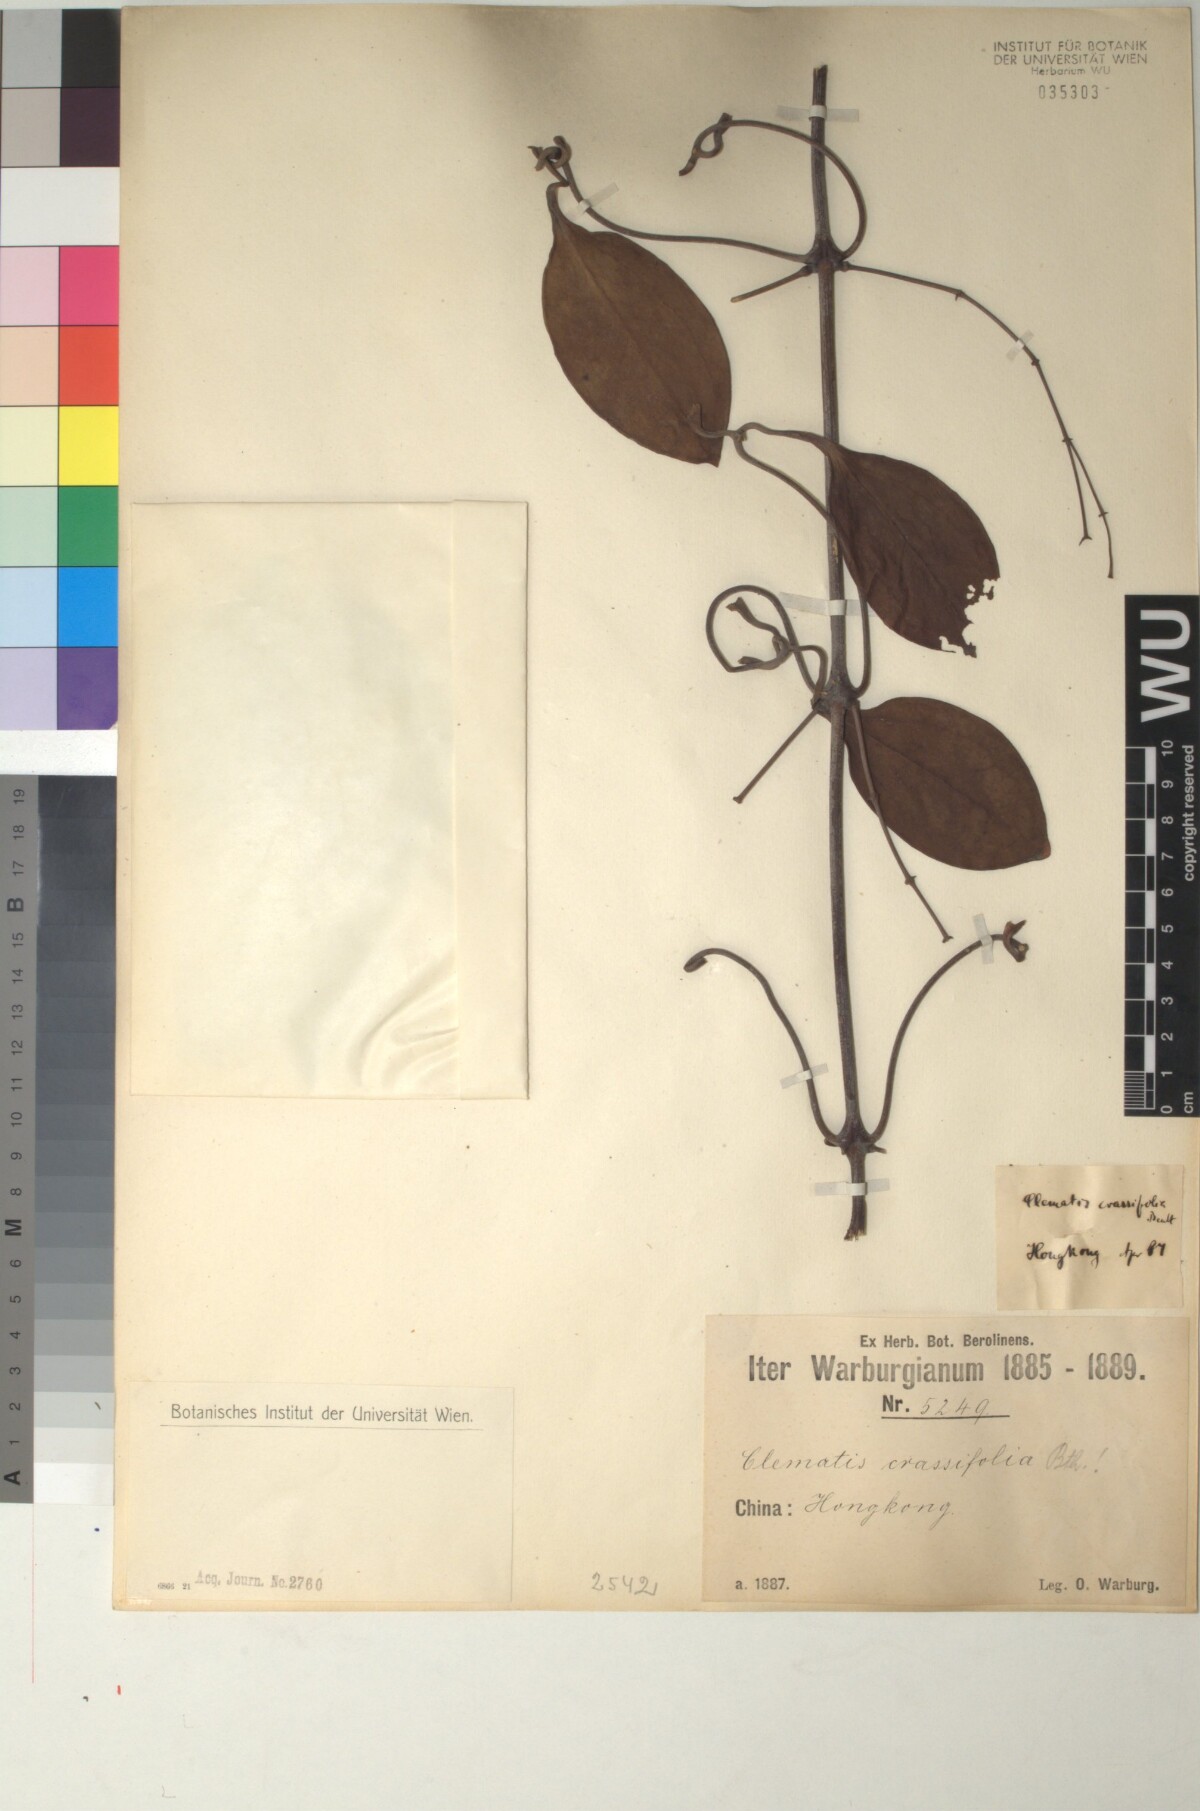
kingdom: Plantae
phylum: Tracheophyta
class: Magnoliopsida
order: Ranunculales
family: Ranunculaceae
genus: Clematis
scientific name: Clematis crassifolia
